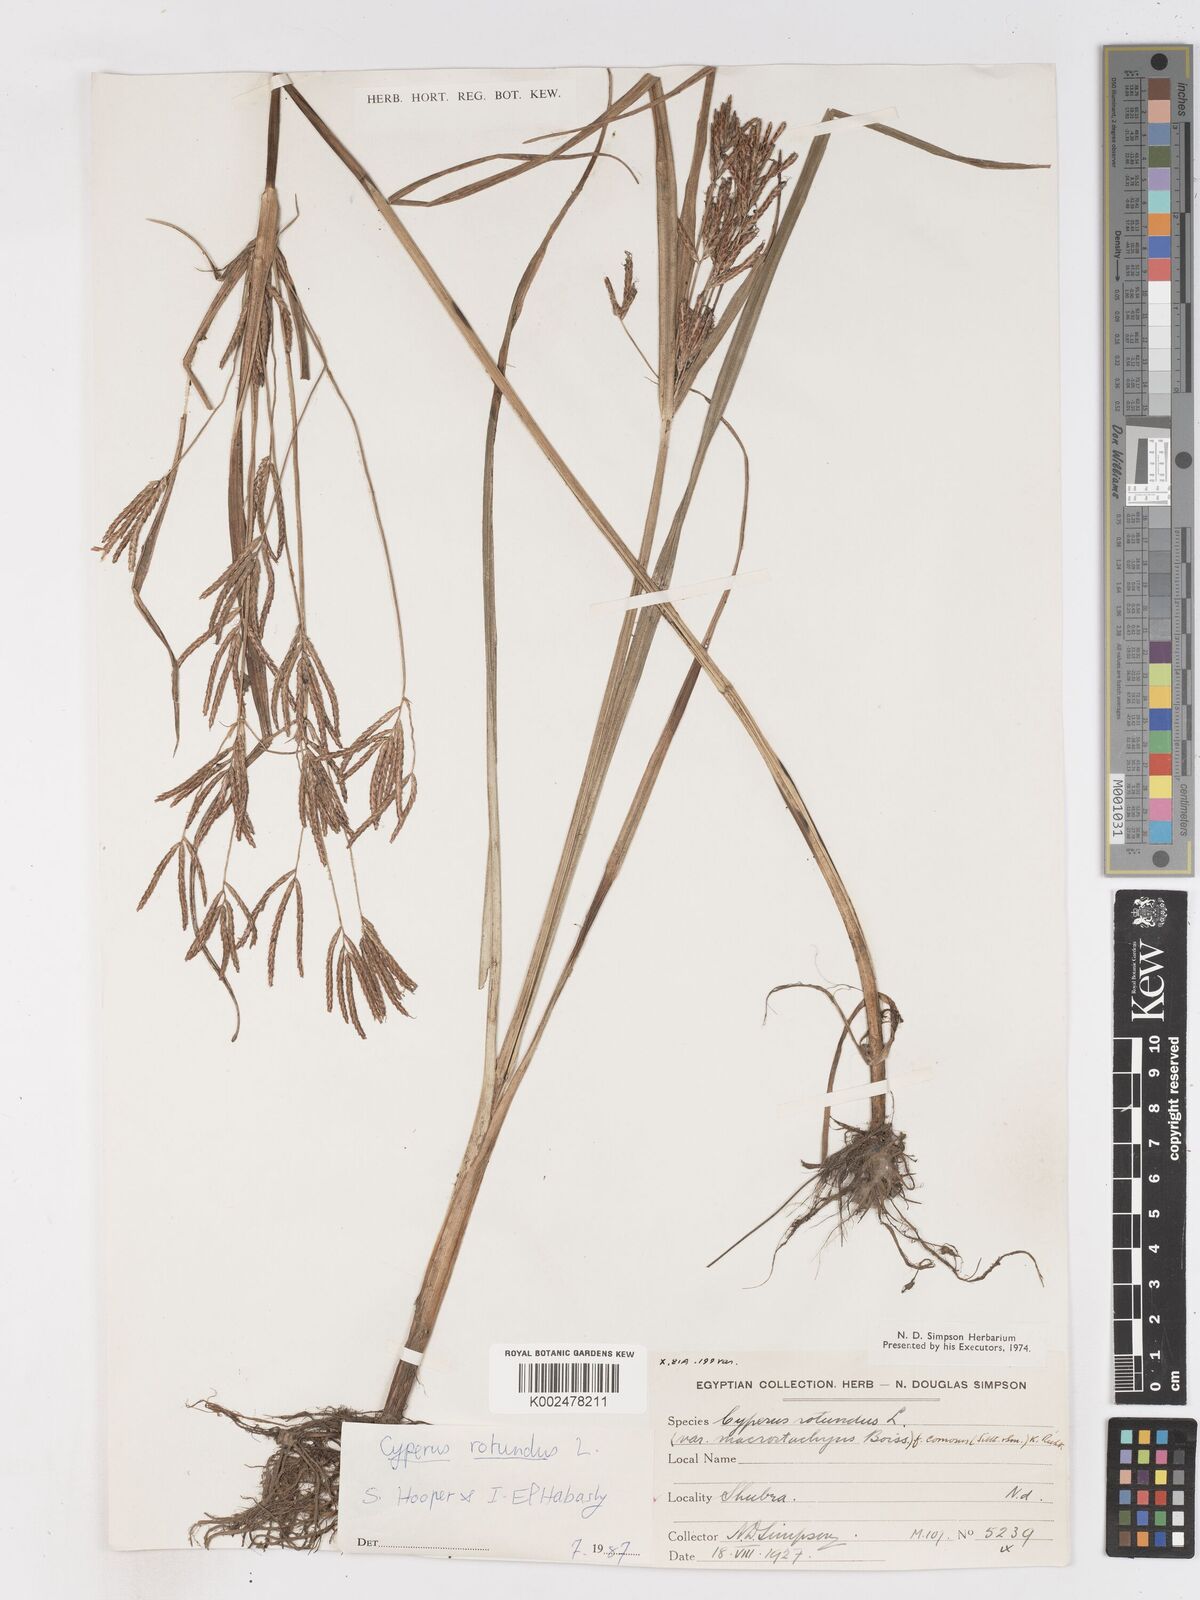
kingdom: Plantae
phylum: Tracheophyta
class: Liliopsida
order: Poales
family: Cyperaceae
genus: Cyperus
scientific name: Cyperus rotundus
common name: Nutgrass
